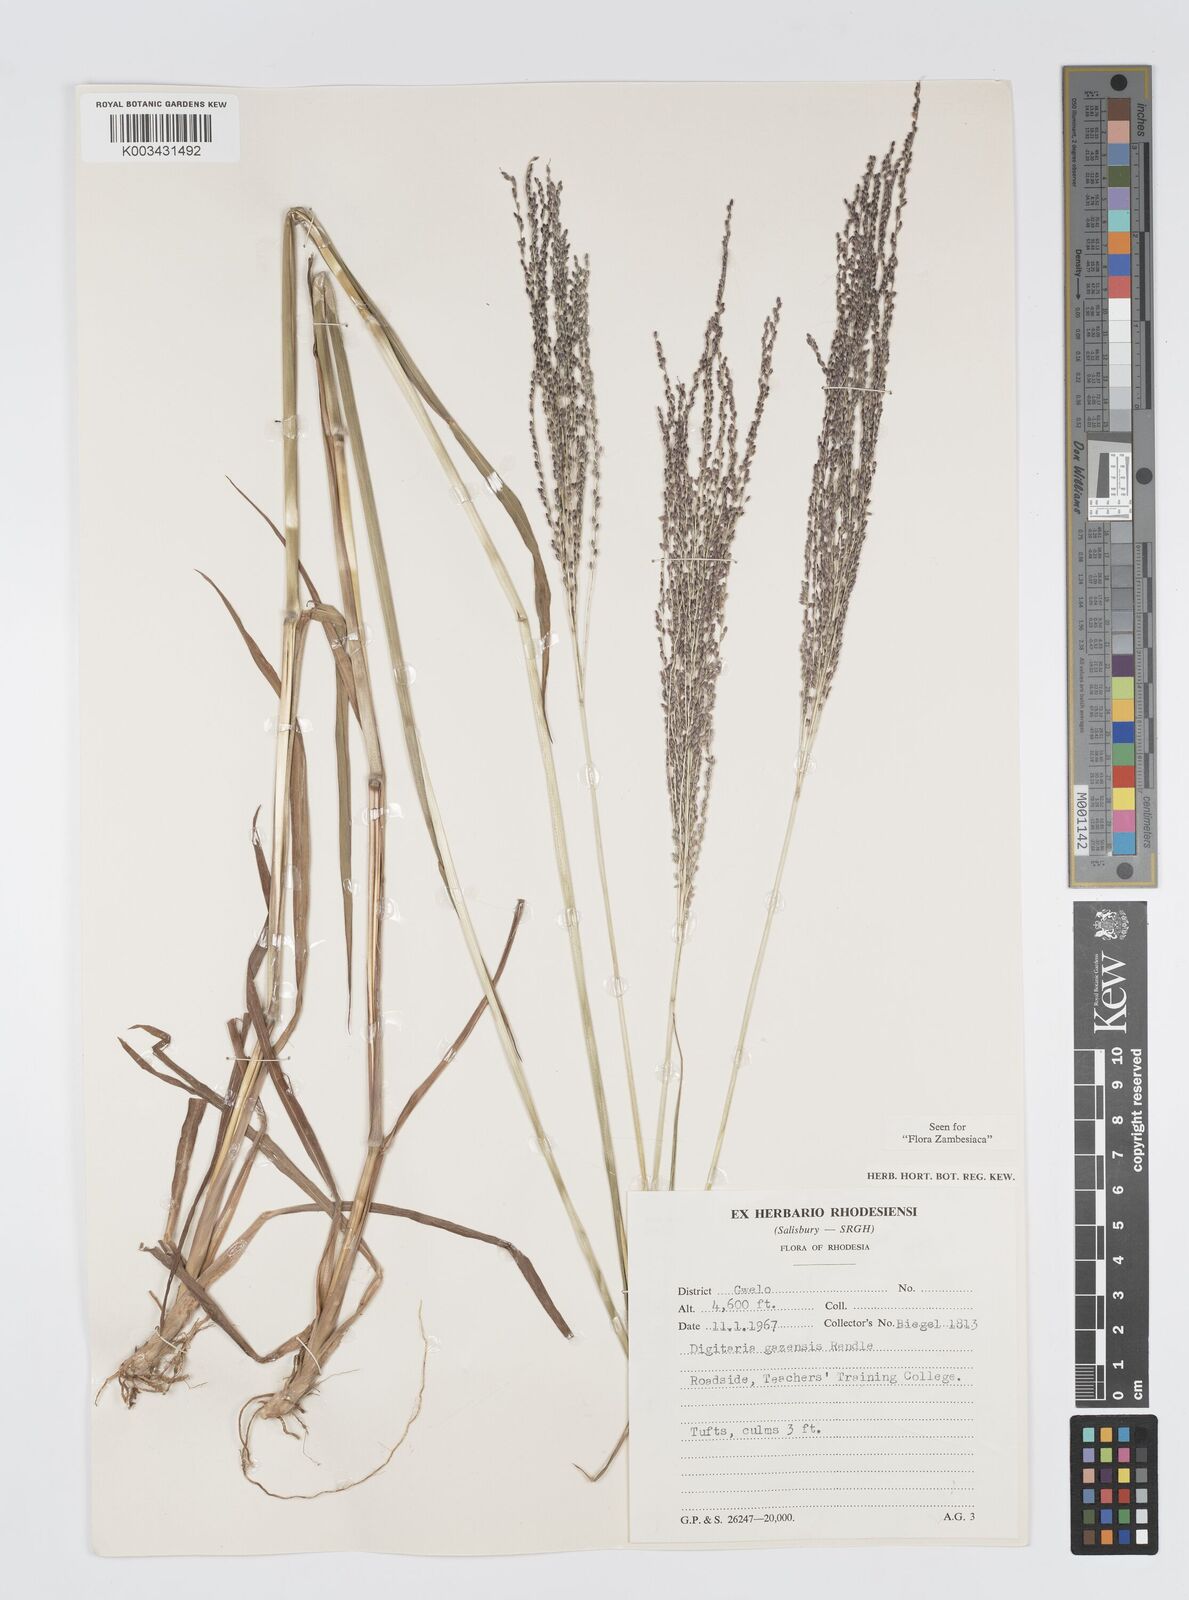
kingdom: Plantae
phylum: Tracheophyta
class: Liliopsida
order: Poales
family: Poaceae
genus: Digitaria
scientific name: Digitaria gazensis
